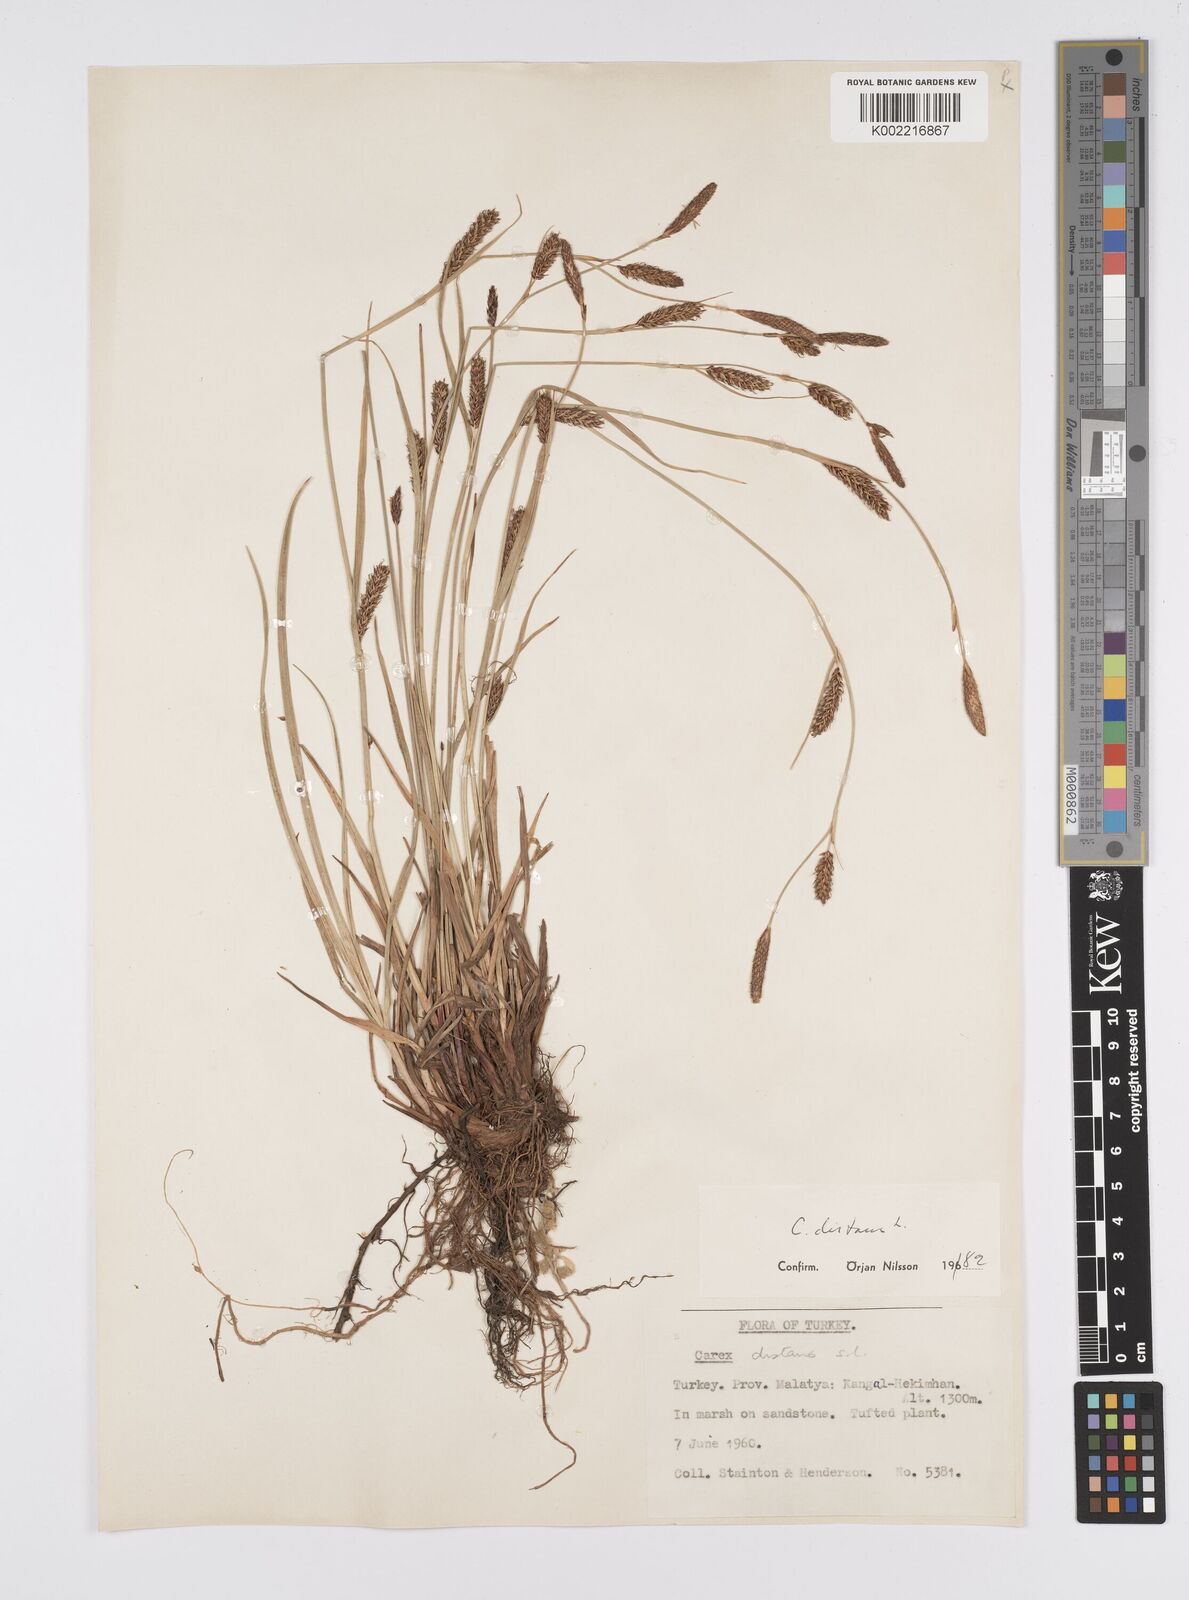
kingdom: Plantae
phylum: Tracheophyta
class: Liliopsida
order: Poales
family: Cyperaceae
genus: Carex
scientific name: Carex distans
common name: Distant sedge
